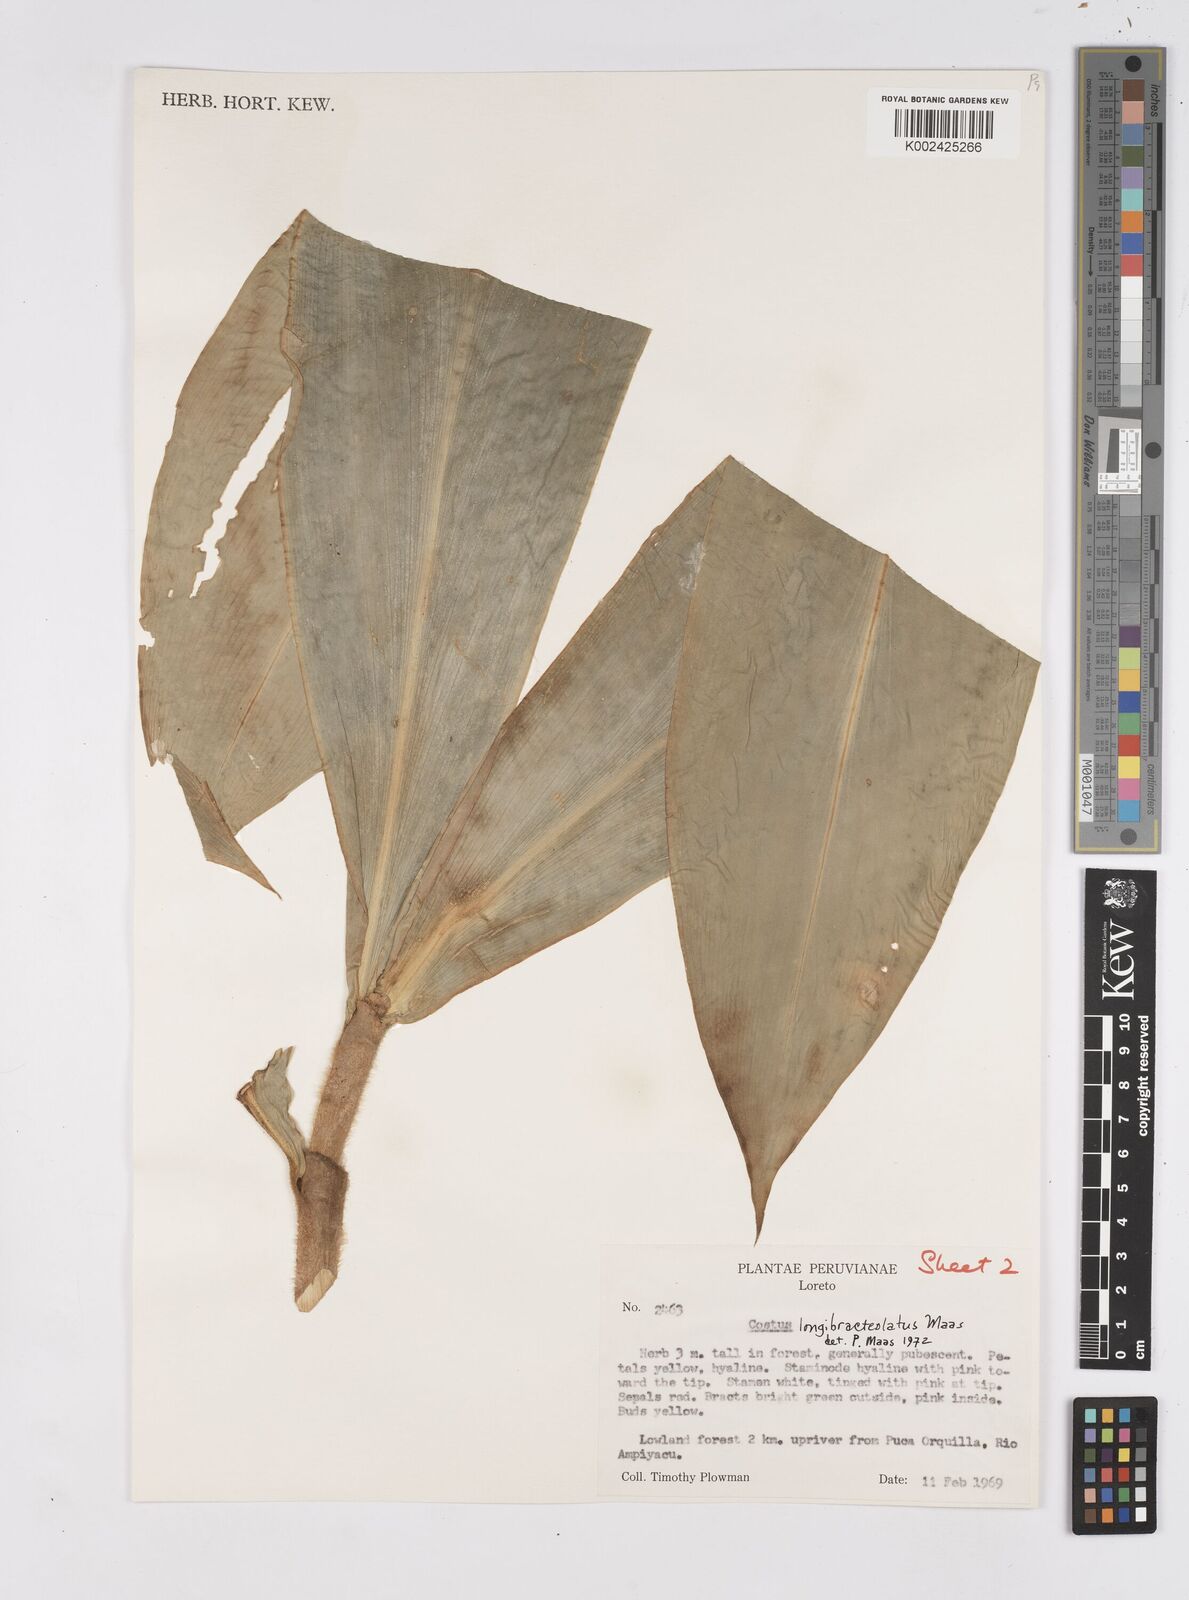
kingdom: Plantae
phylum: Tracheophyta
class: Liliopsida
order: Zingiberales
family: Costaceae
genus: Costus
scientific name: Costus longibracteolatus
